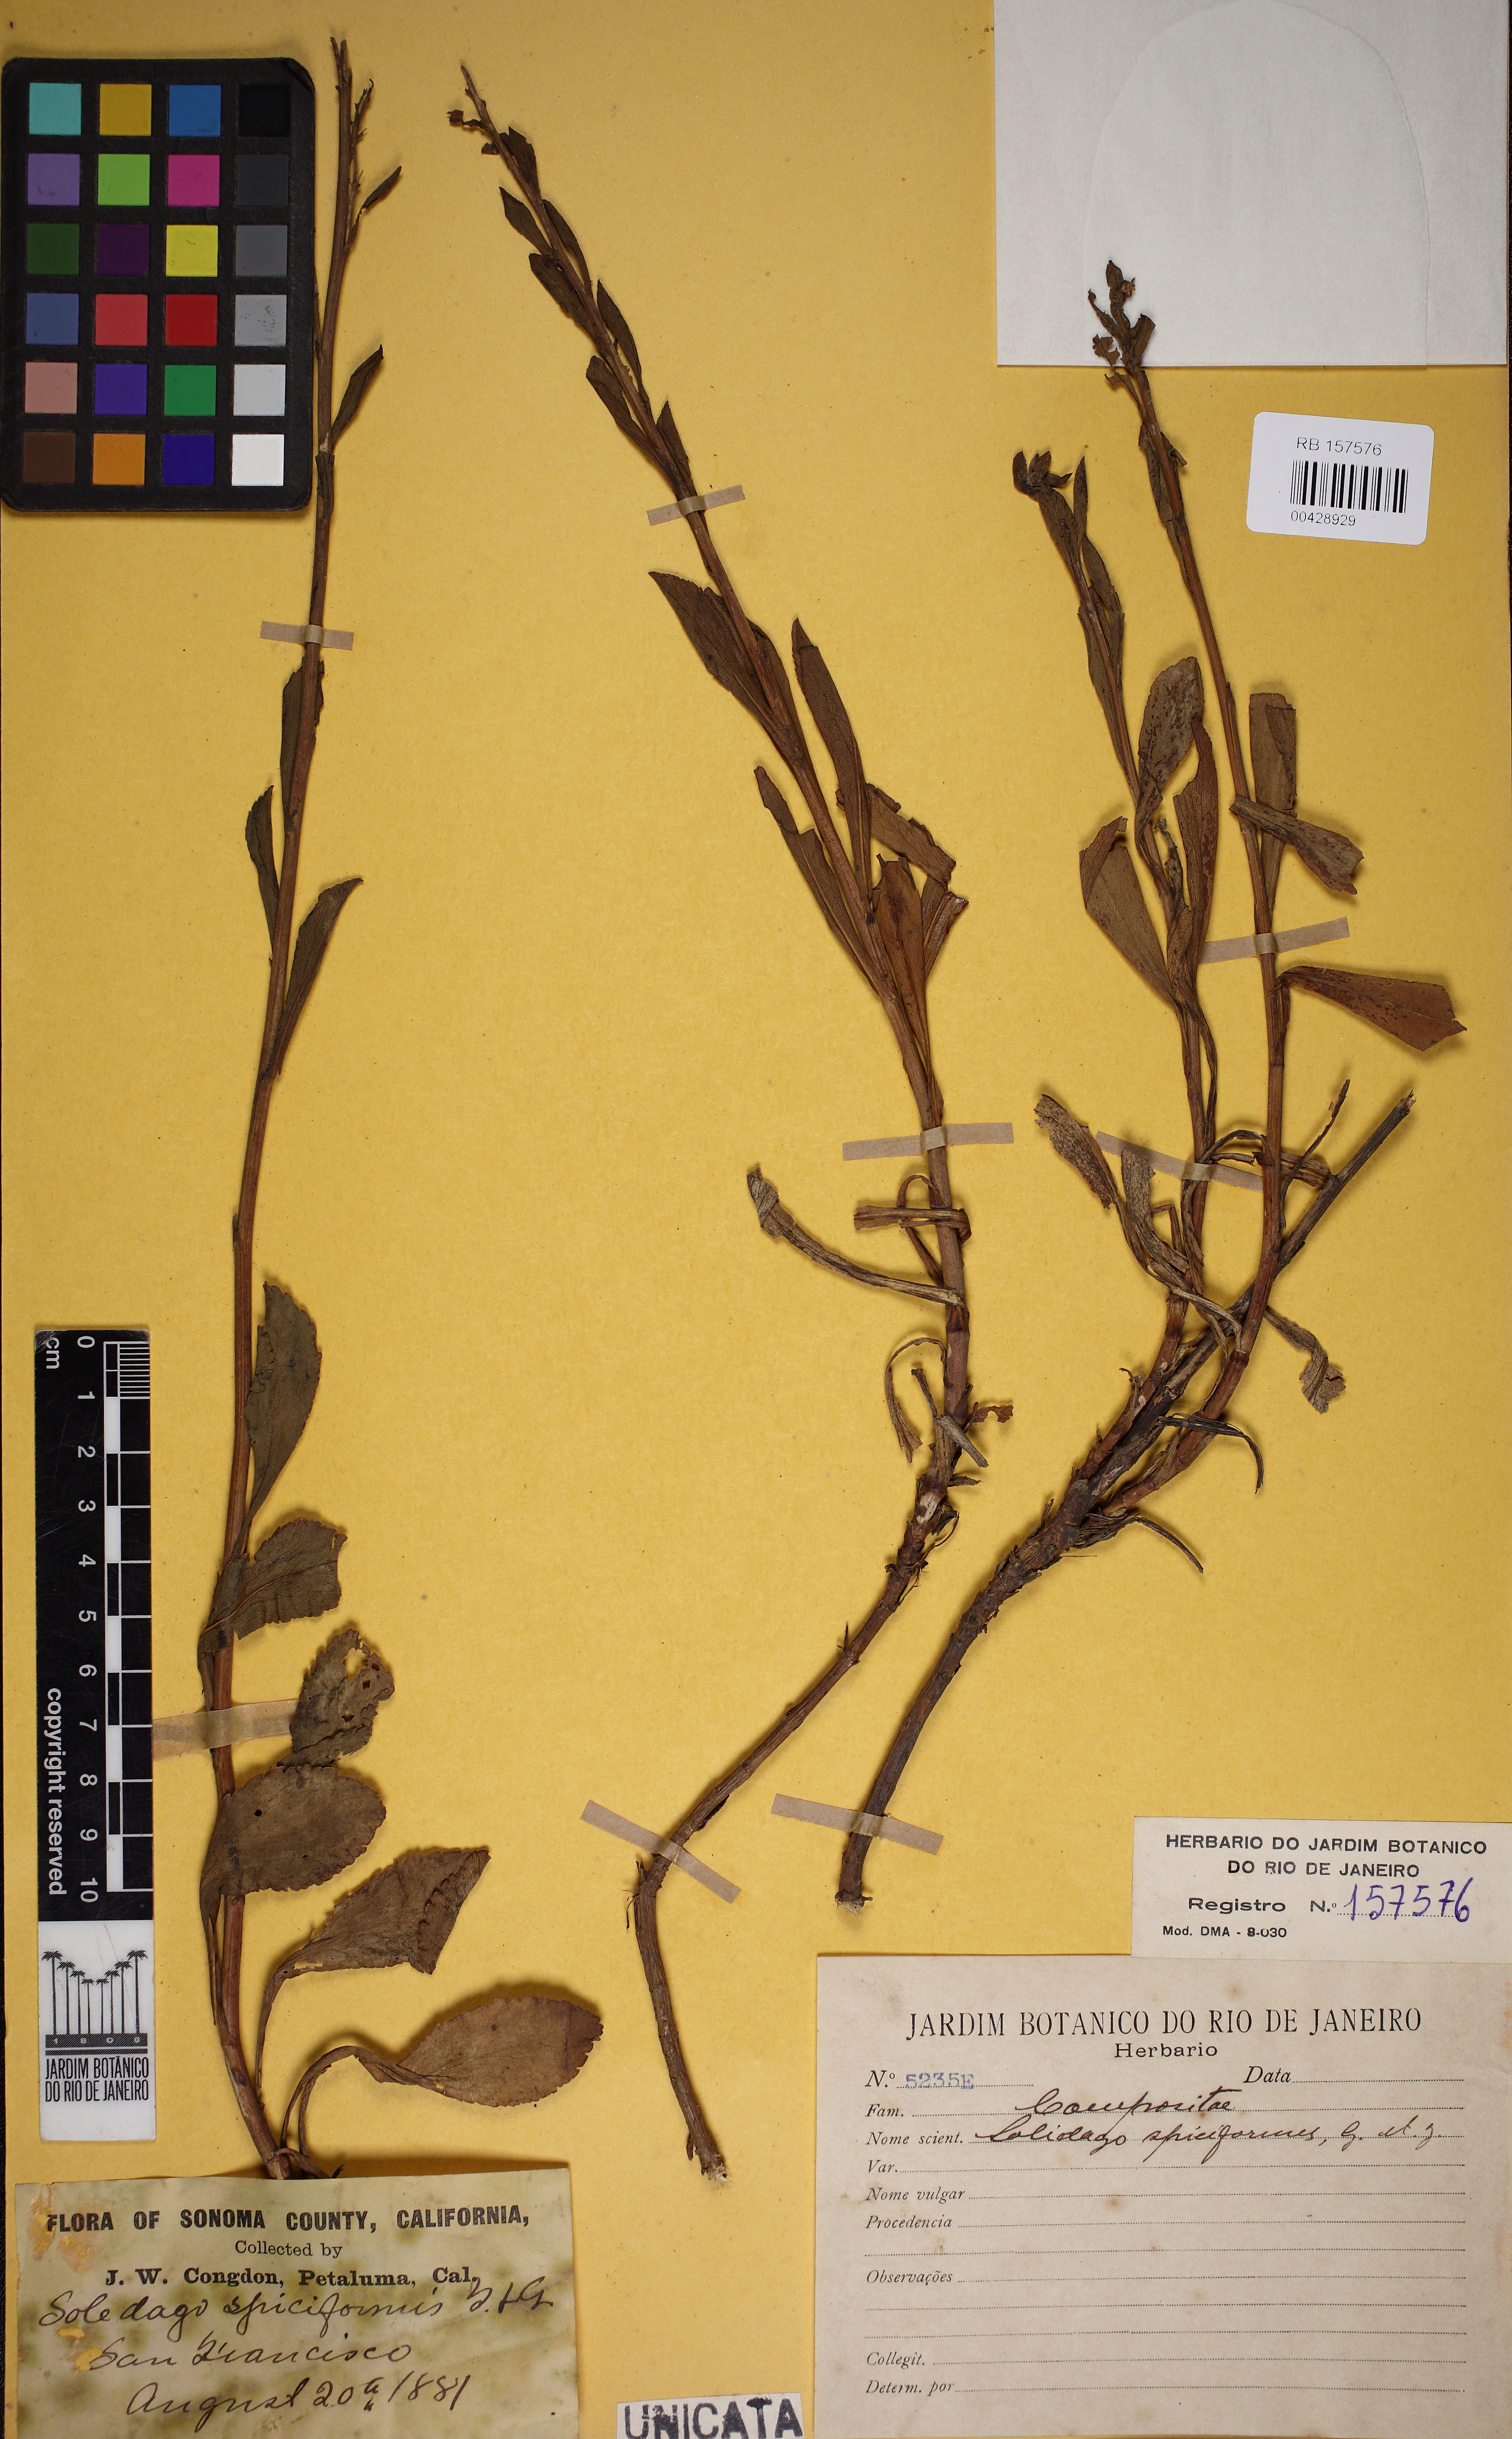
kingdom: Plantae
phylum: Tracheophyta
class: Magnoliopsida
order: Asterales
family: Asteraceae
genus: Solidago
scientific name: Solidago spathulata
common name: Coast goldenrod
